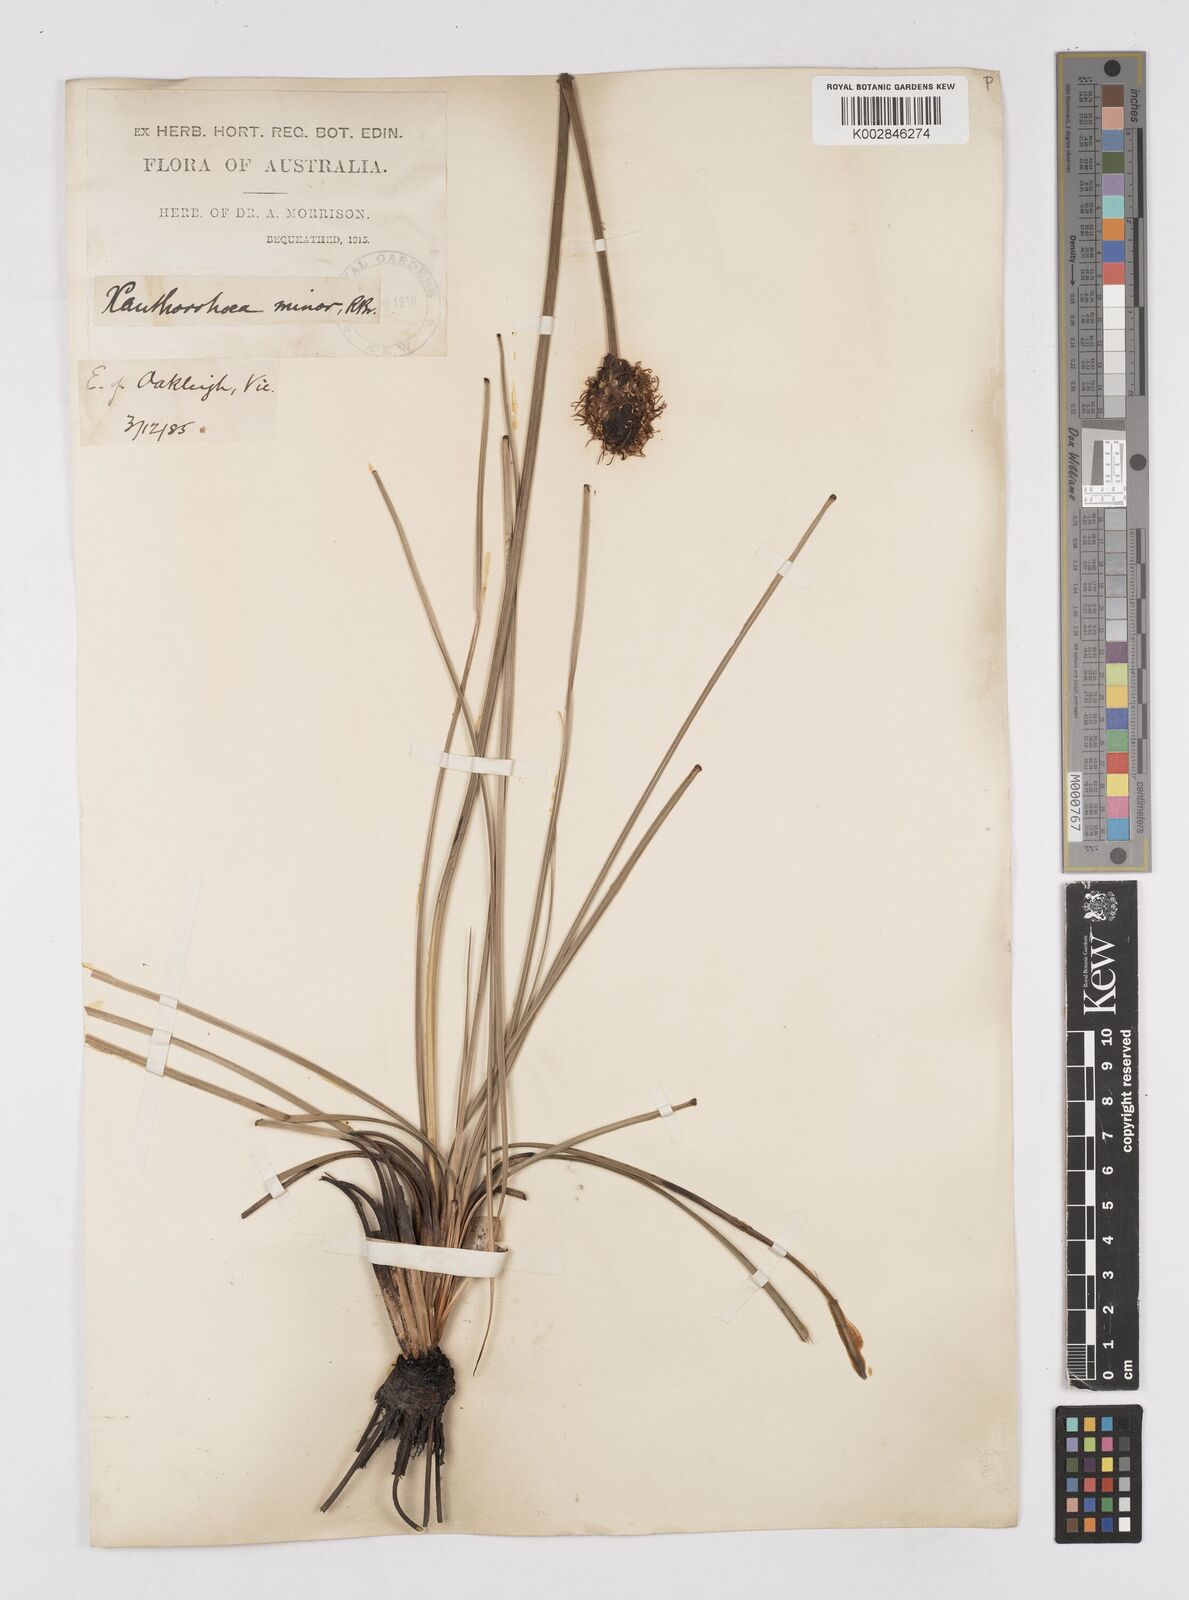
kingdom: Plantae
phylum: Tracheophyta
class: Liliopsida
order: Asparagales
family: Asphodelaceae
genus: Xanthorrhoea
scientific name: Xanthorrhoea minor
